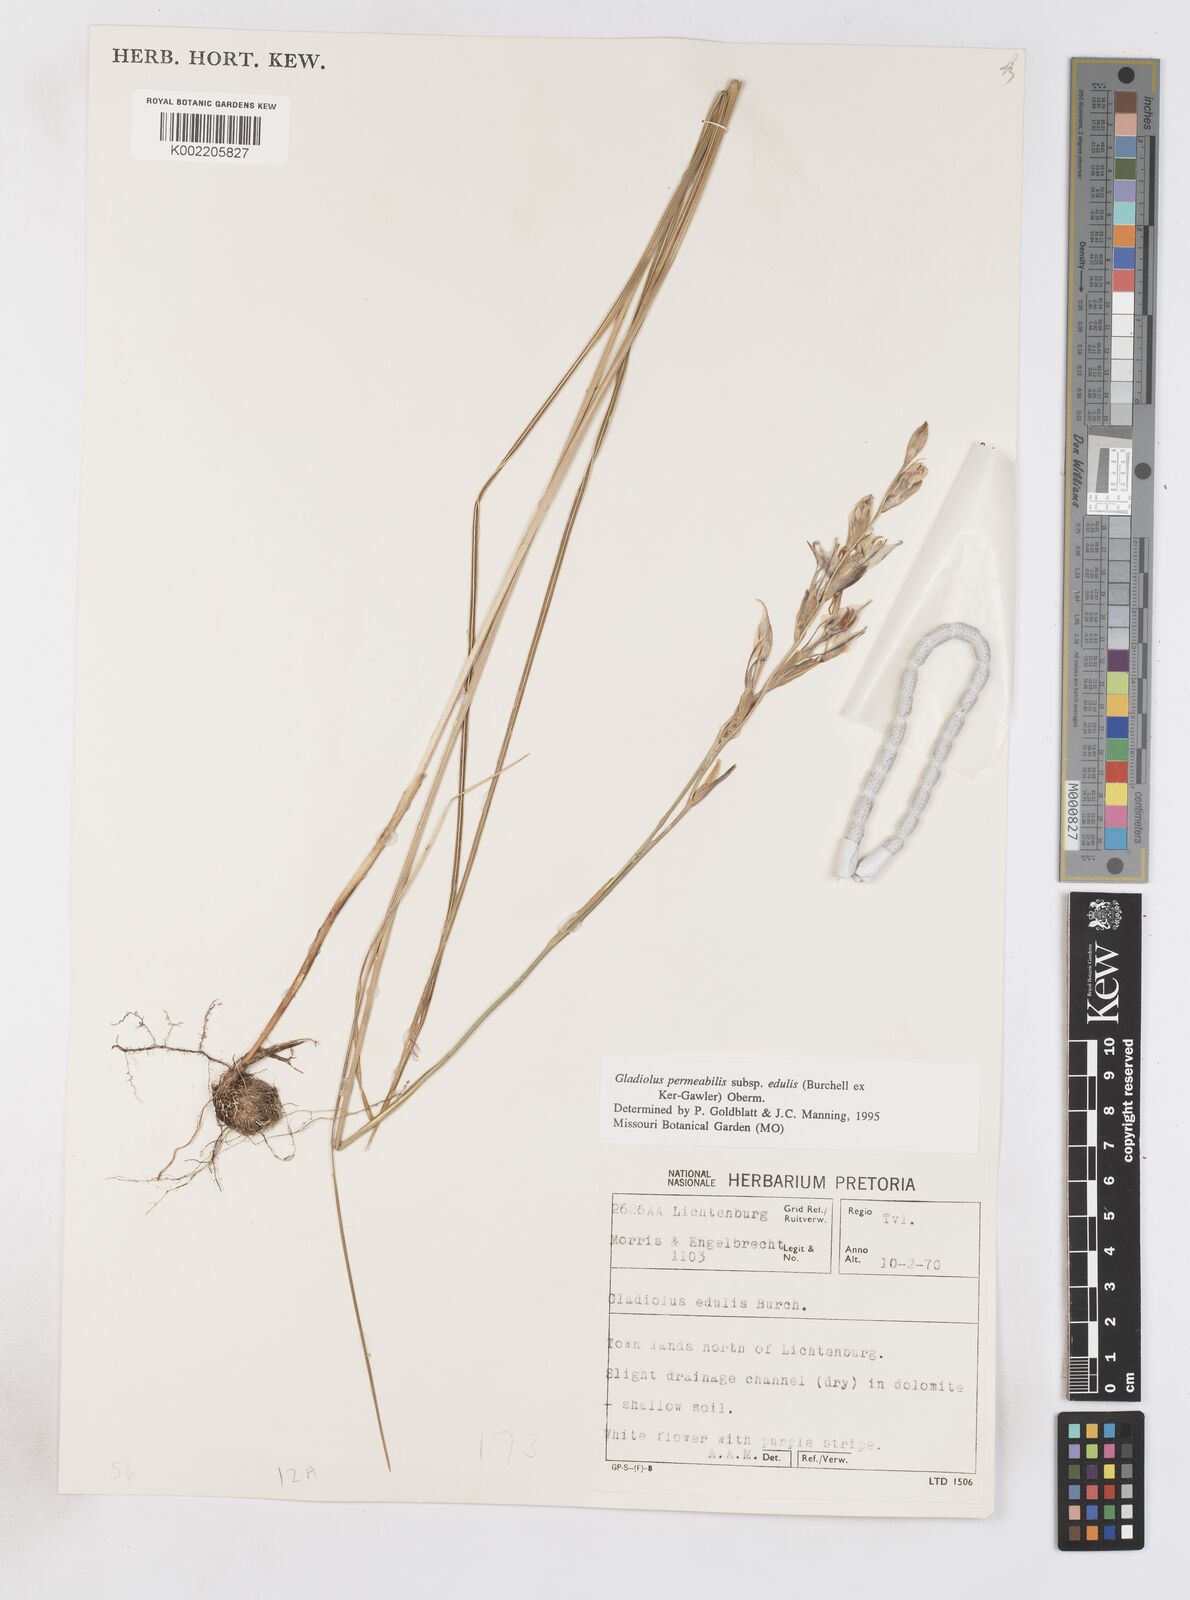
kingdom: Plantae
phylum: Tracheophyta
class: Liliopsida
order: Asparagales
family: Iridaceae
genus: Gladiolus
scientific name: Gladiolus permeabilis
